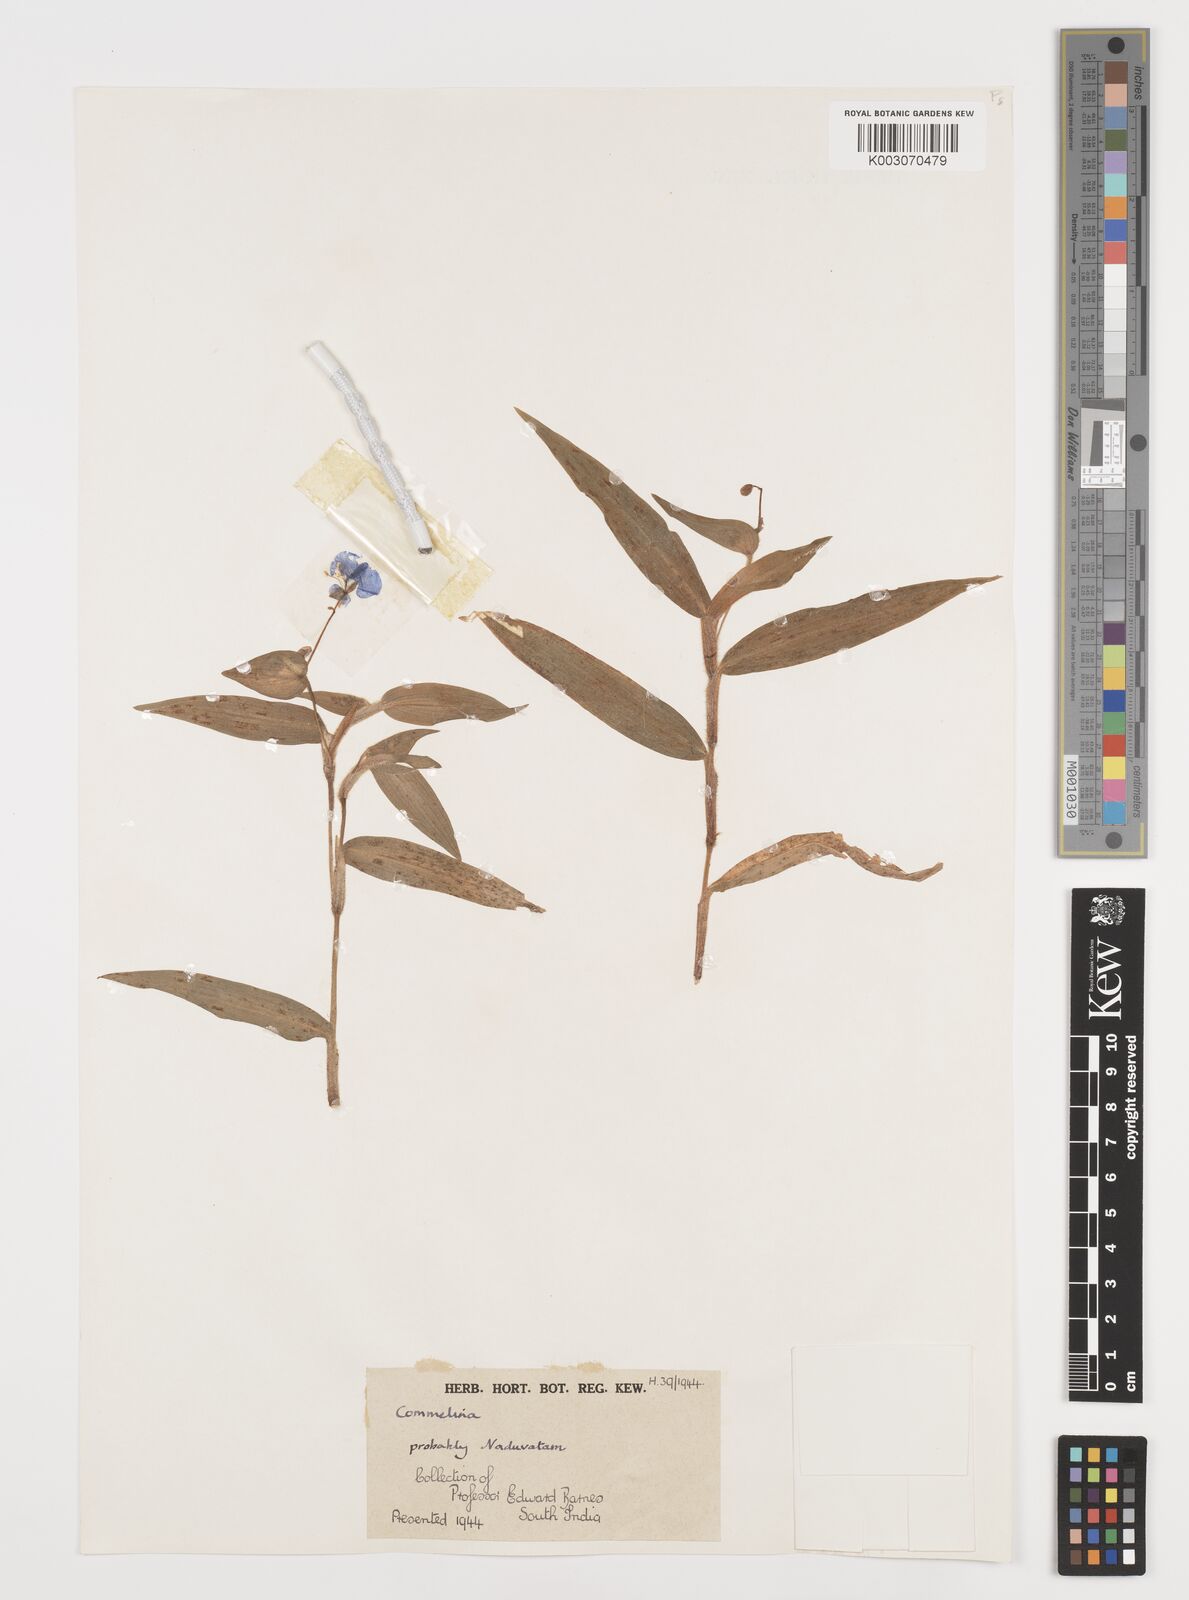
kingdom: Plantae
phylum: Tracheophyta
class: Liliopsida
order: Commelinales
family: Commelinaceae
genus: Commelina
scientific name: Commelina
